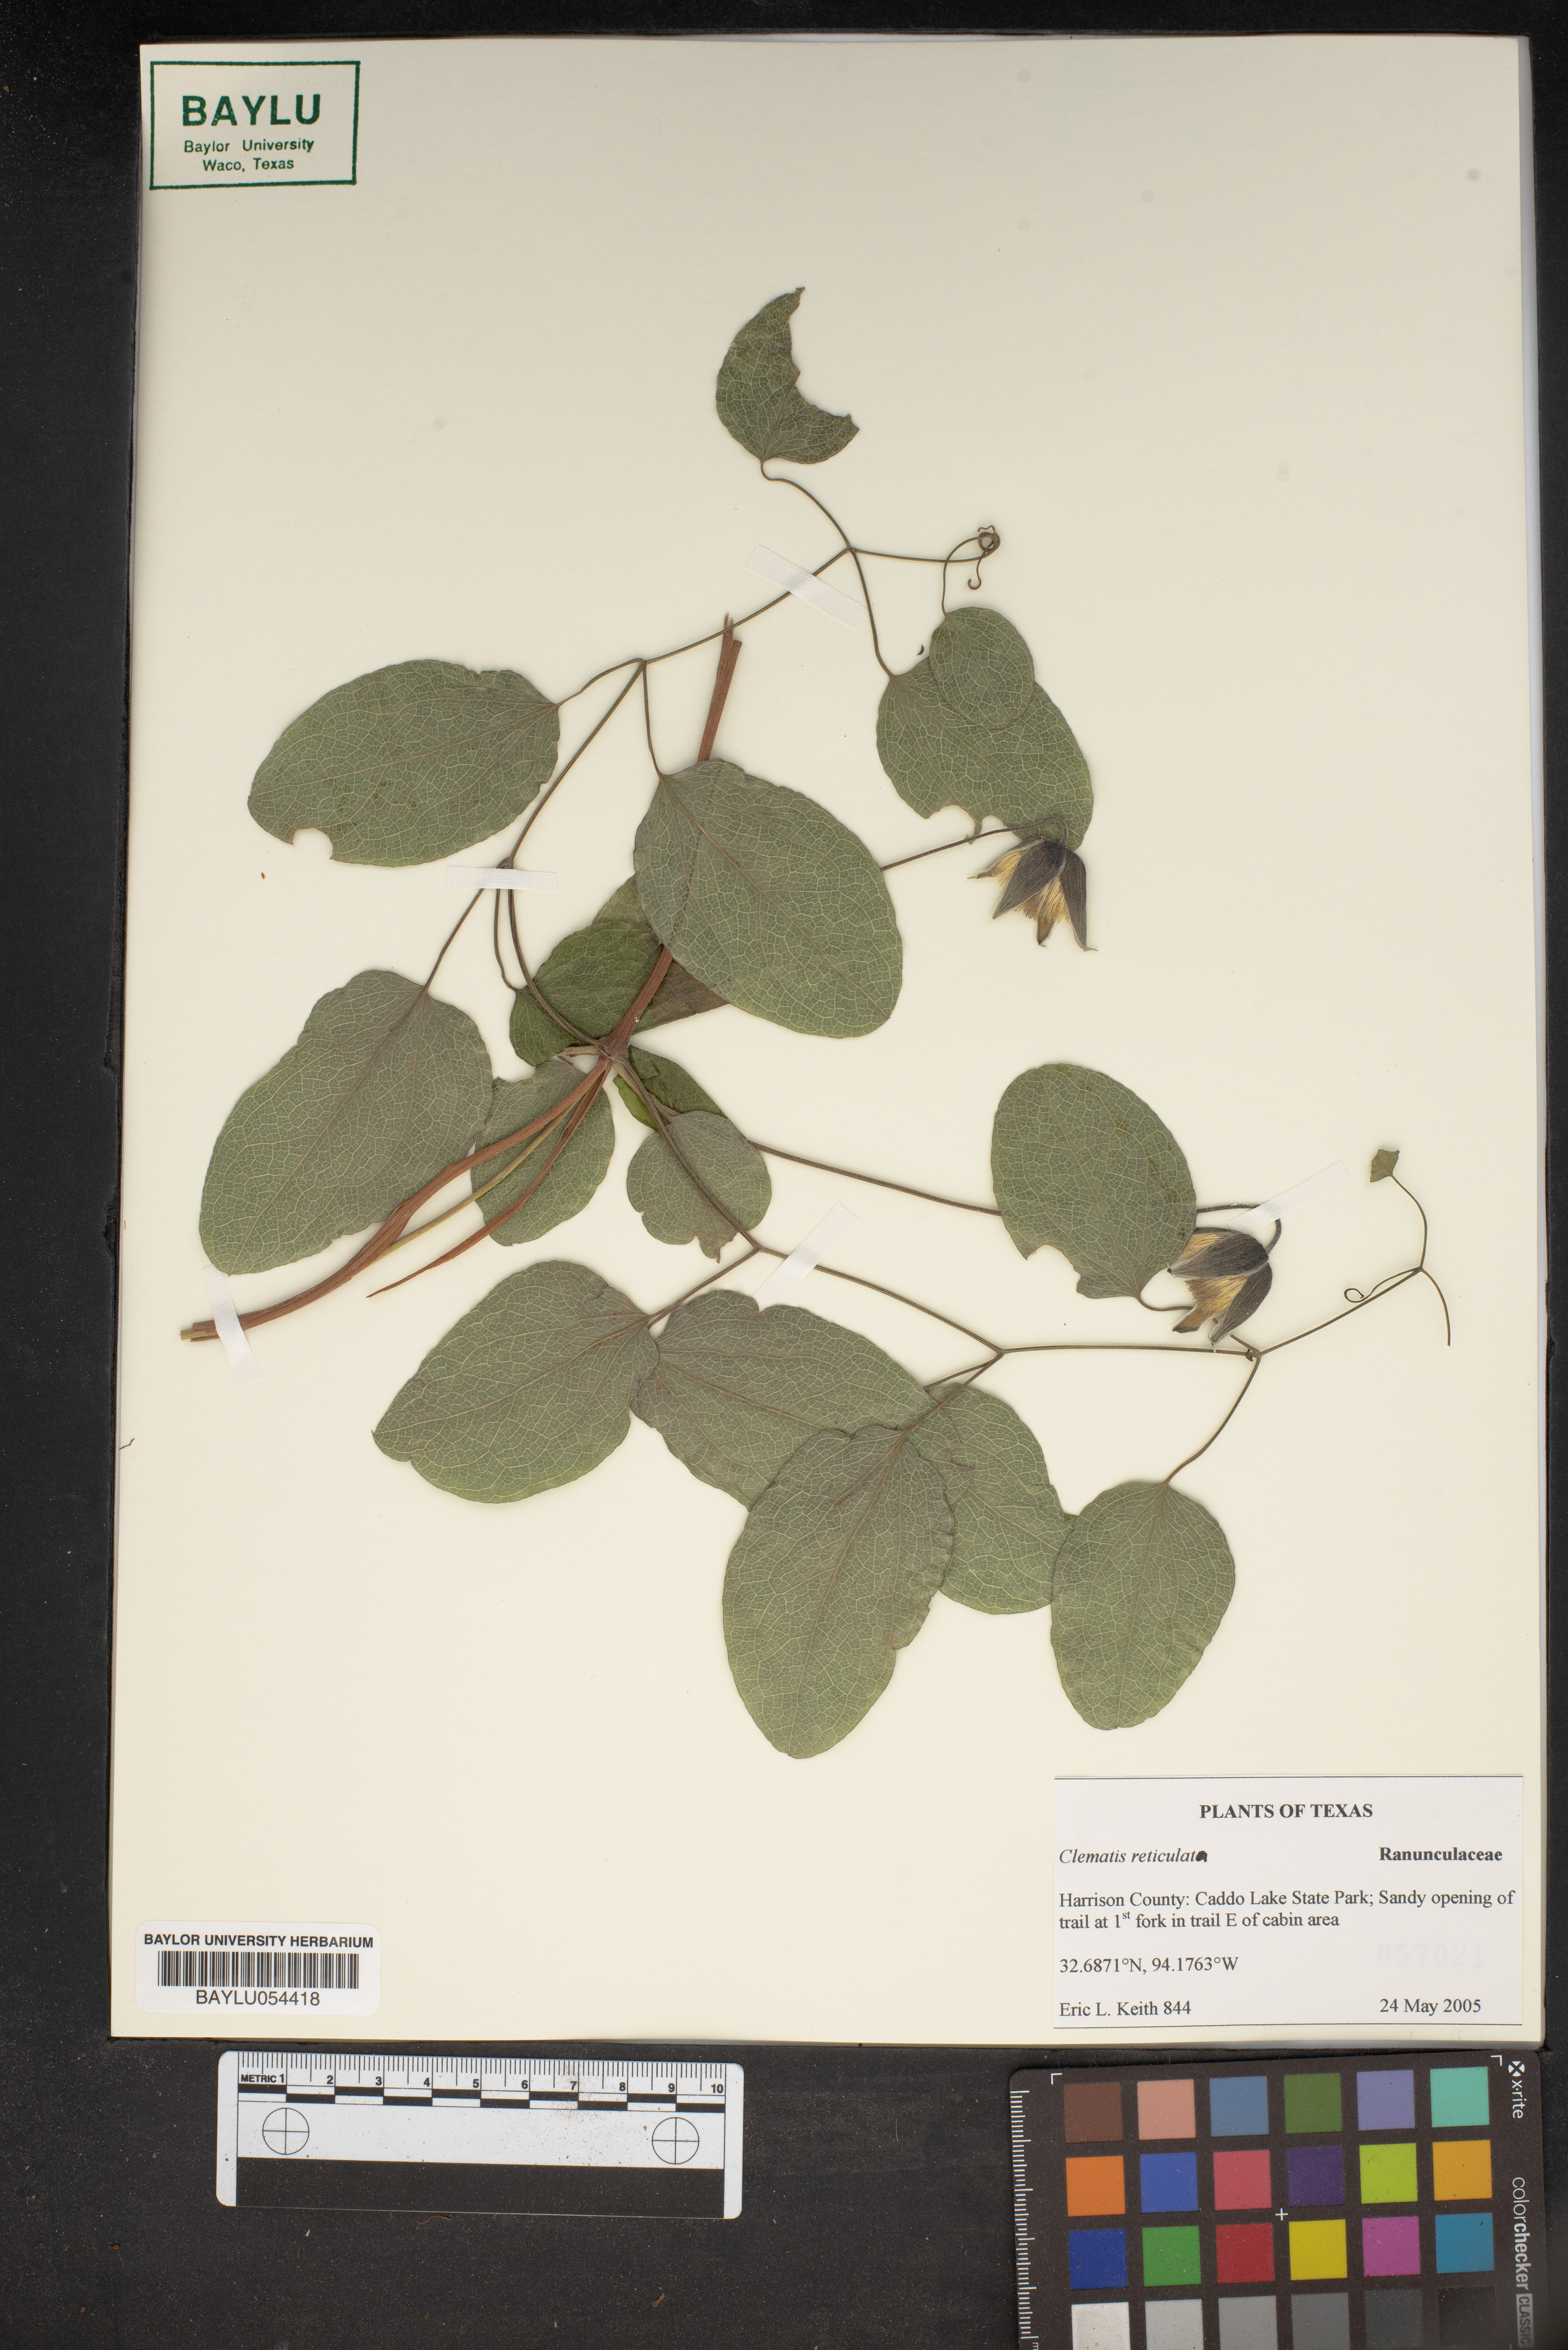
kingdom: Plantae
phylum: Tracheophyta
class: Magnoliopsida
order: Ranunculales
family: Ranunculaceae
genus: Clematis
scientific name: Clematis reticulata
